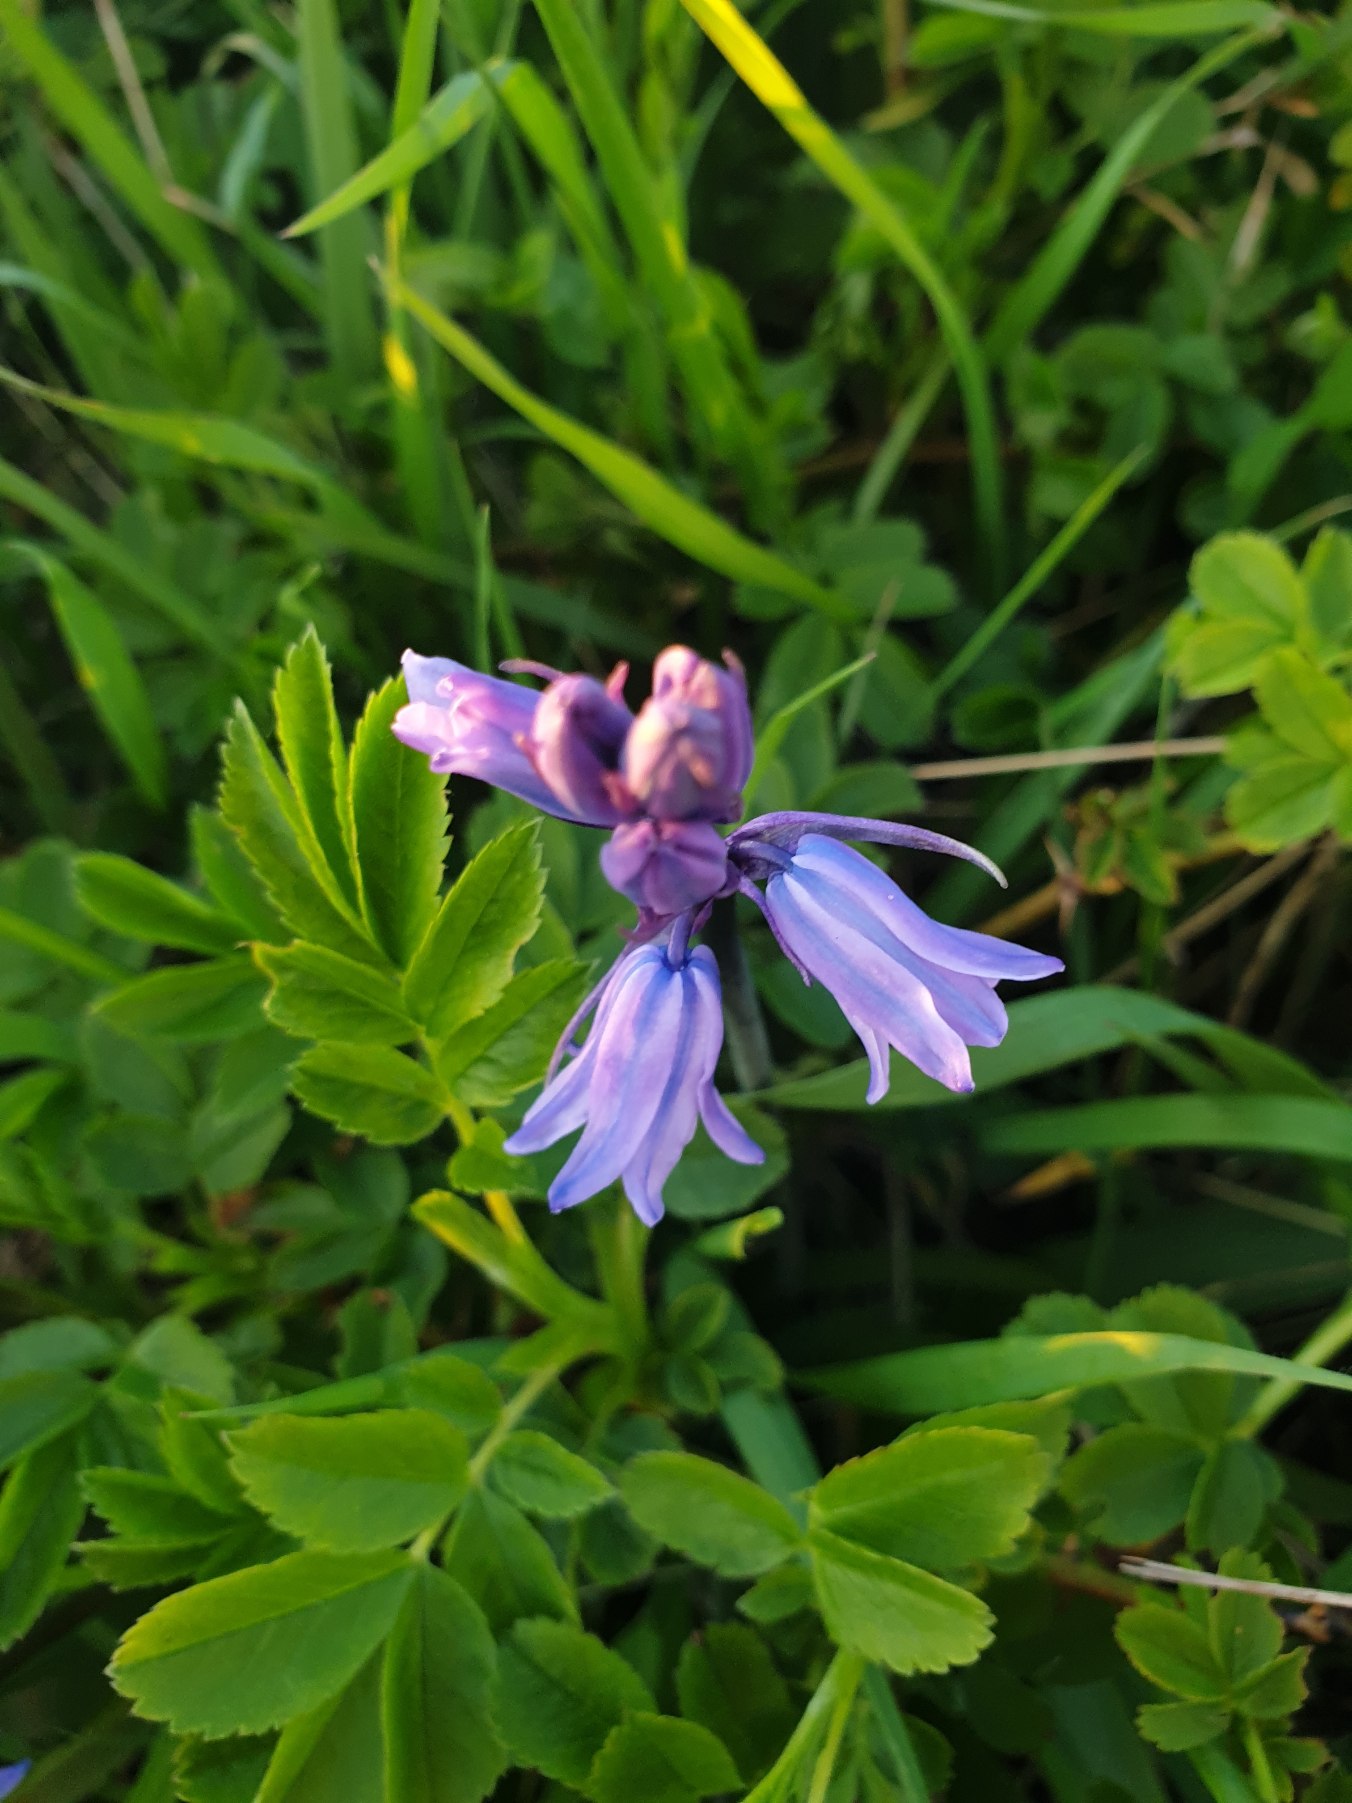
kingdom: Plantae
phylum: Tracheophyta
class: Liliopsida
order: Asparagales
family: Asparagaceae
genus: Hyacinthoides
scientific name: Hyacinthoides hispanica
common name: Spansk skilla
